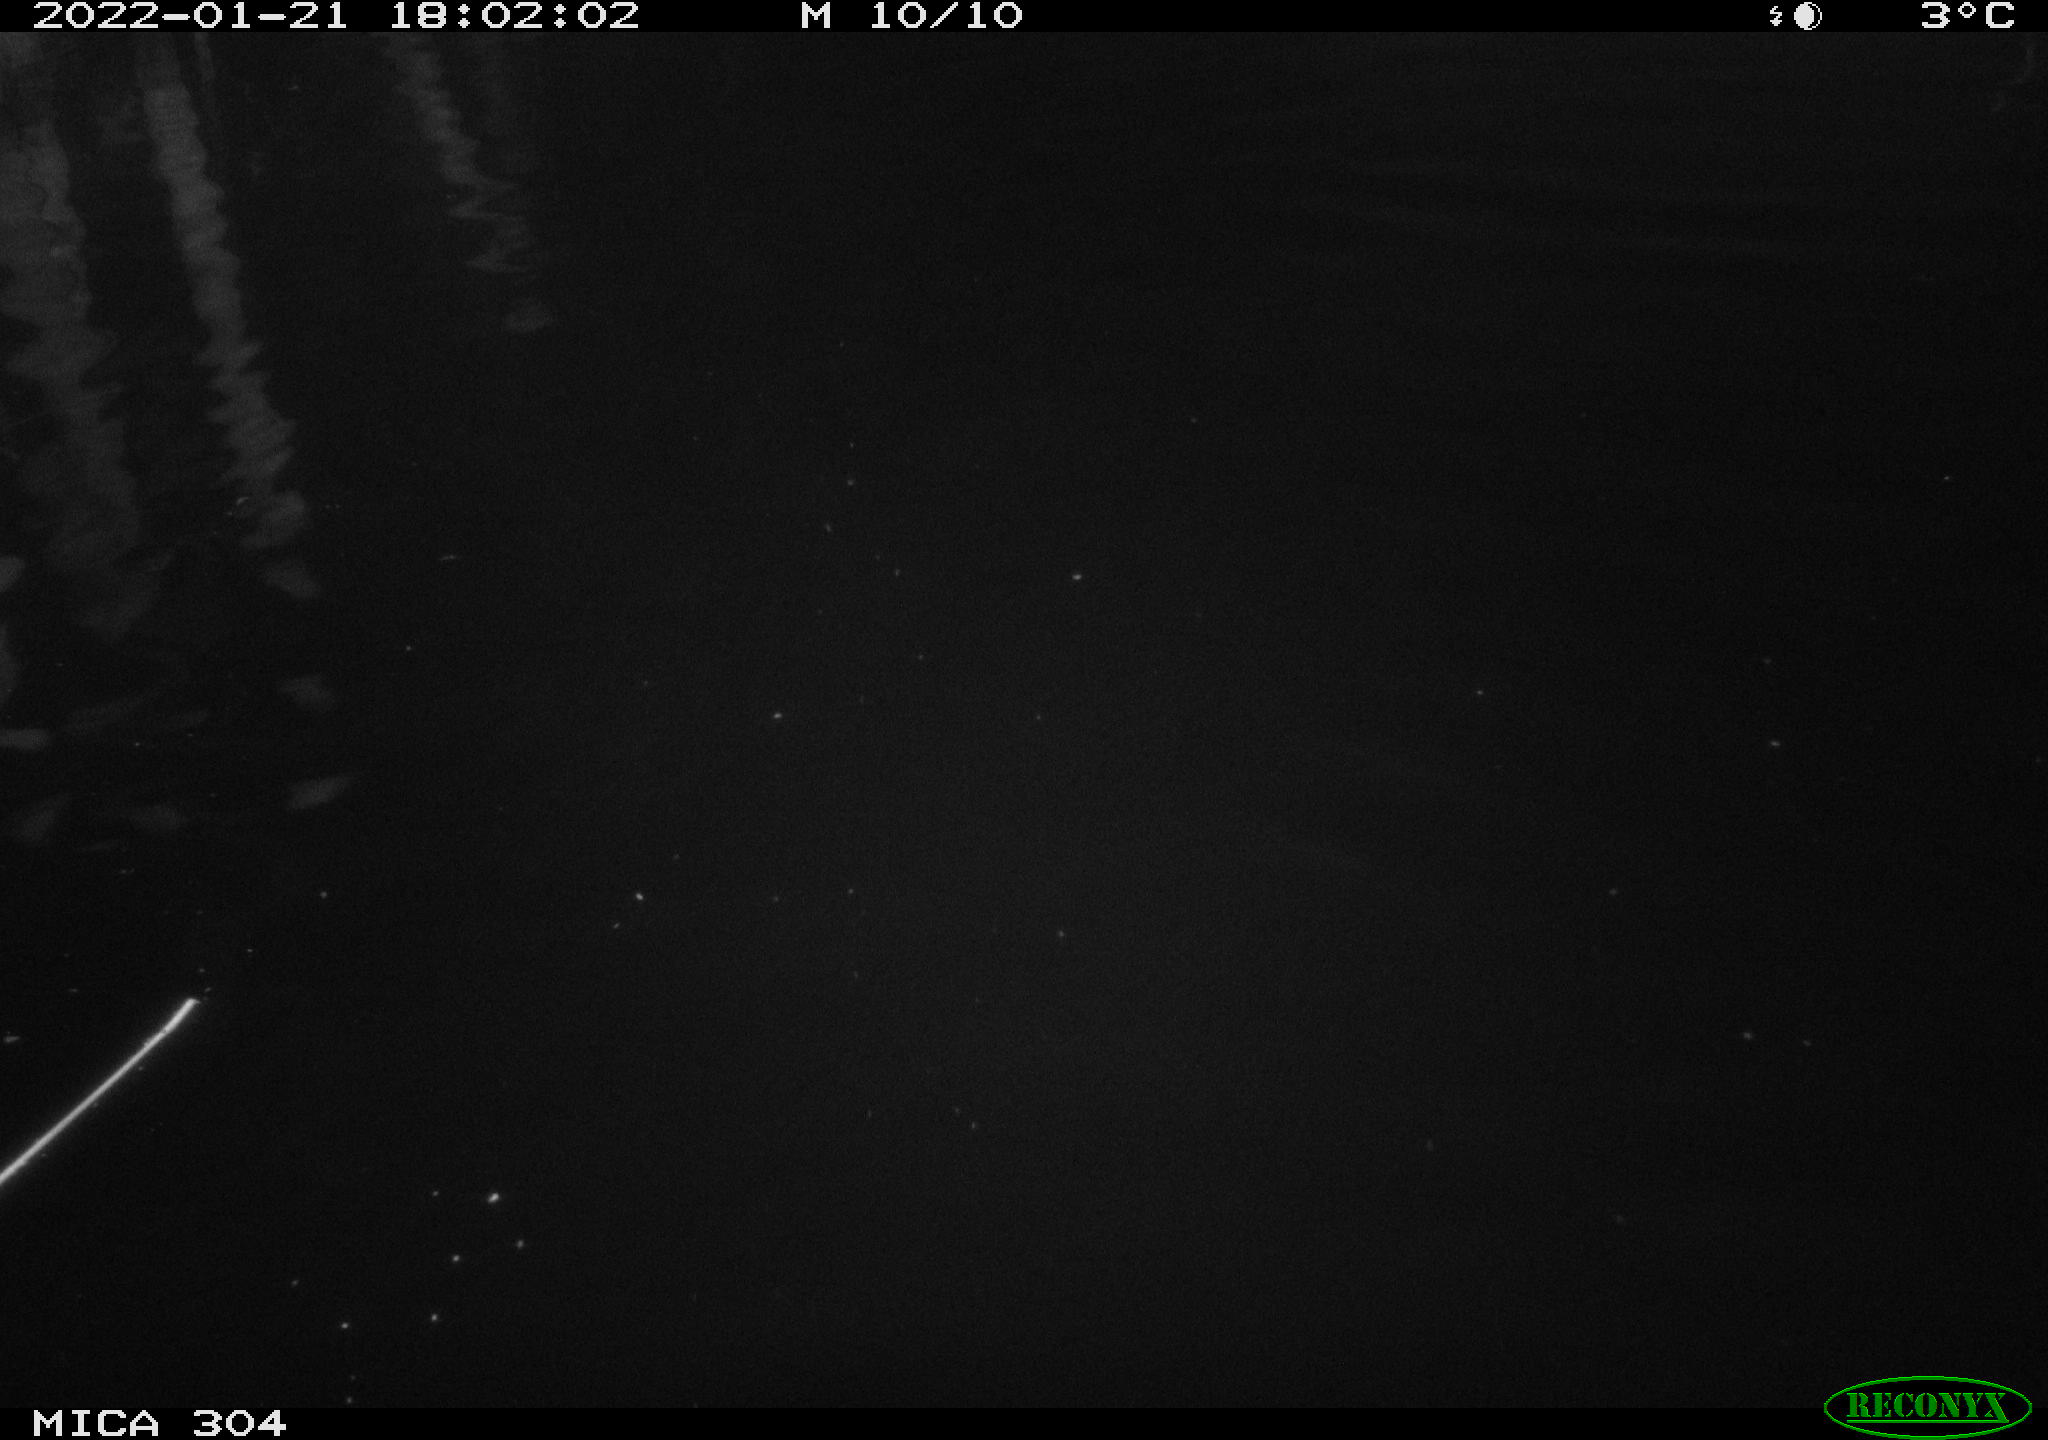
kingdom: Animalia
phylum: Chordata
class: Aves
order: Gruiformes
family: Rallidae
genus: Gallinula
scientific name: Gallinula chloropus
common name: Common moorhen
